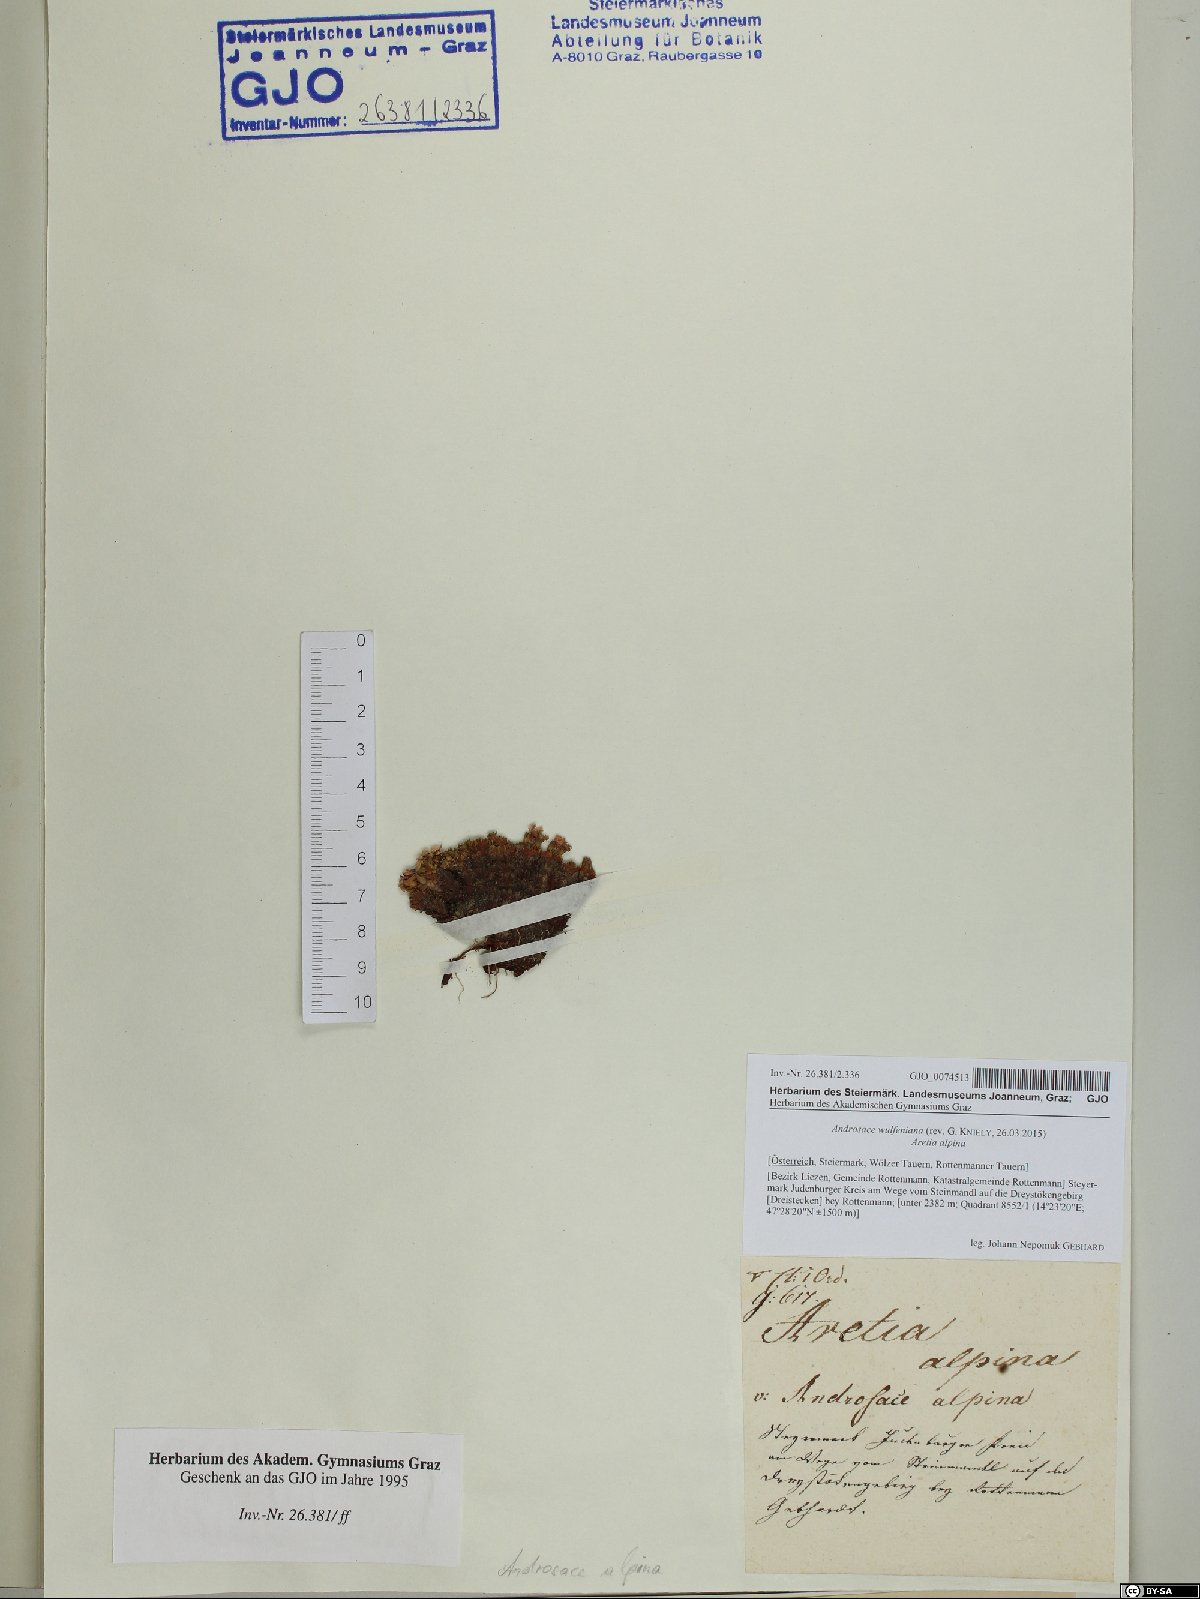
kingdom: Plantae
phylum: Tracheophyta
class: Magnoliopsida
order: Ericales
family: Primulaceae
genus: Androsace
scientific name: Androsace wulfeniana
